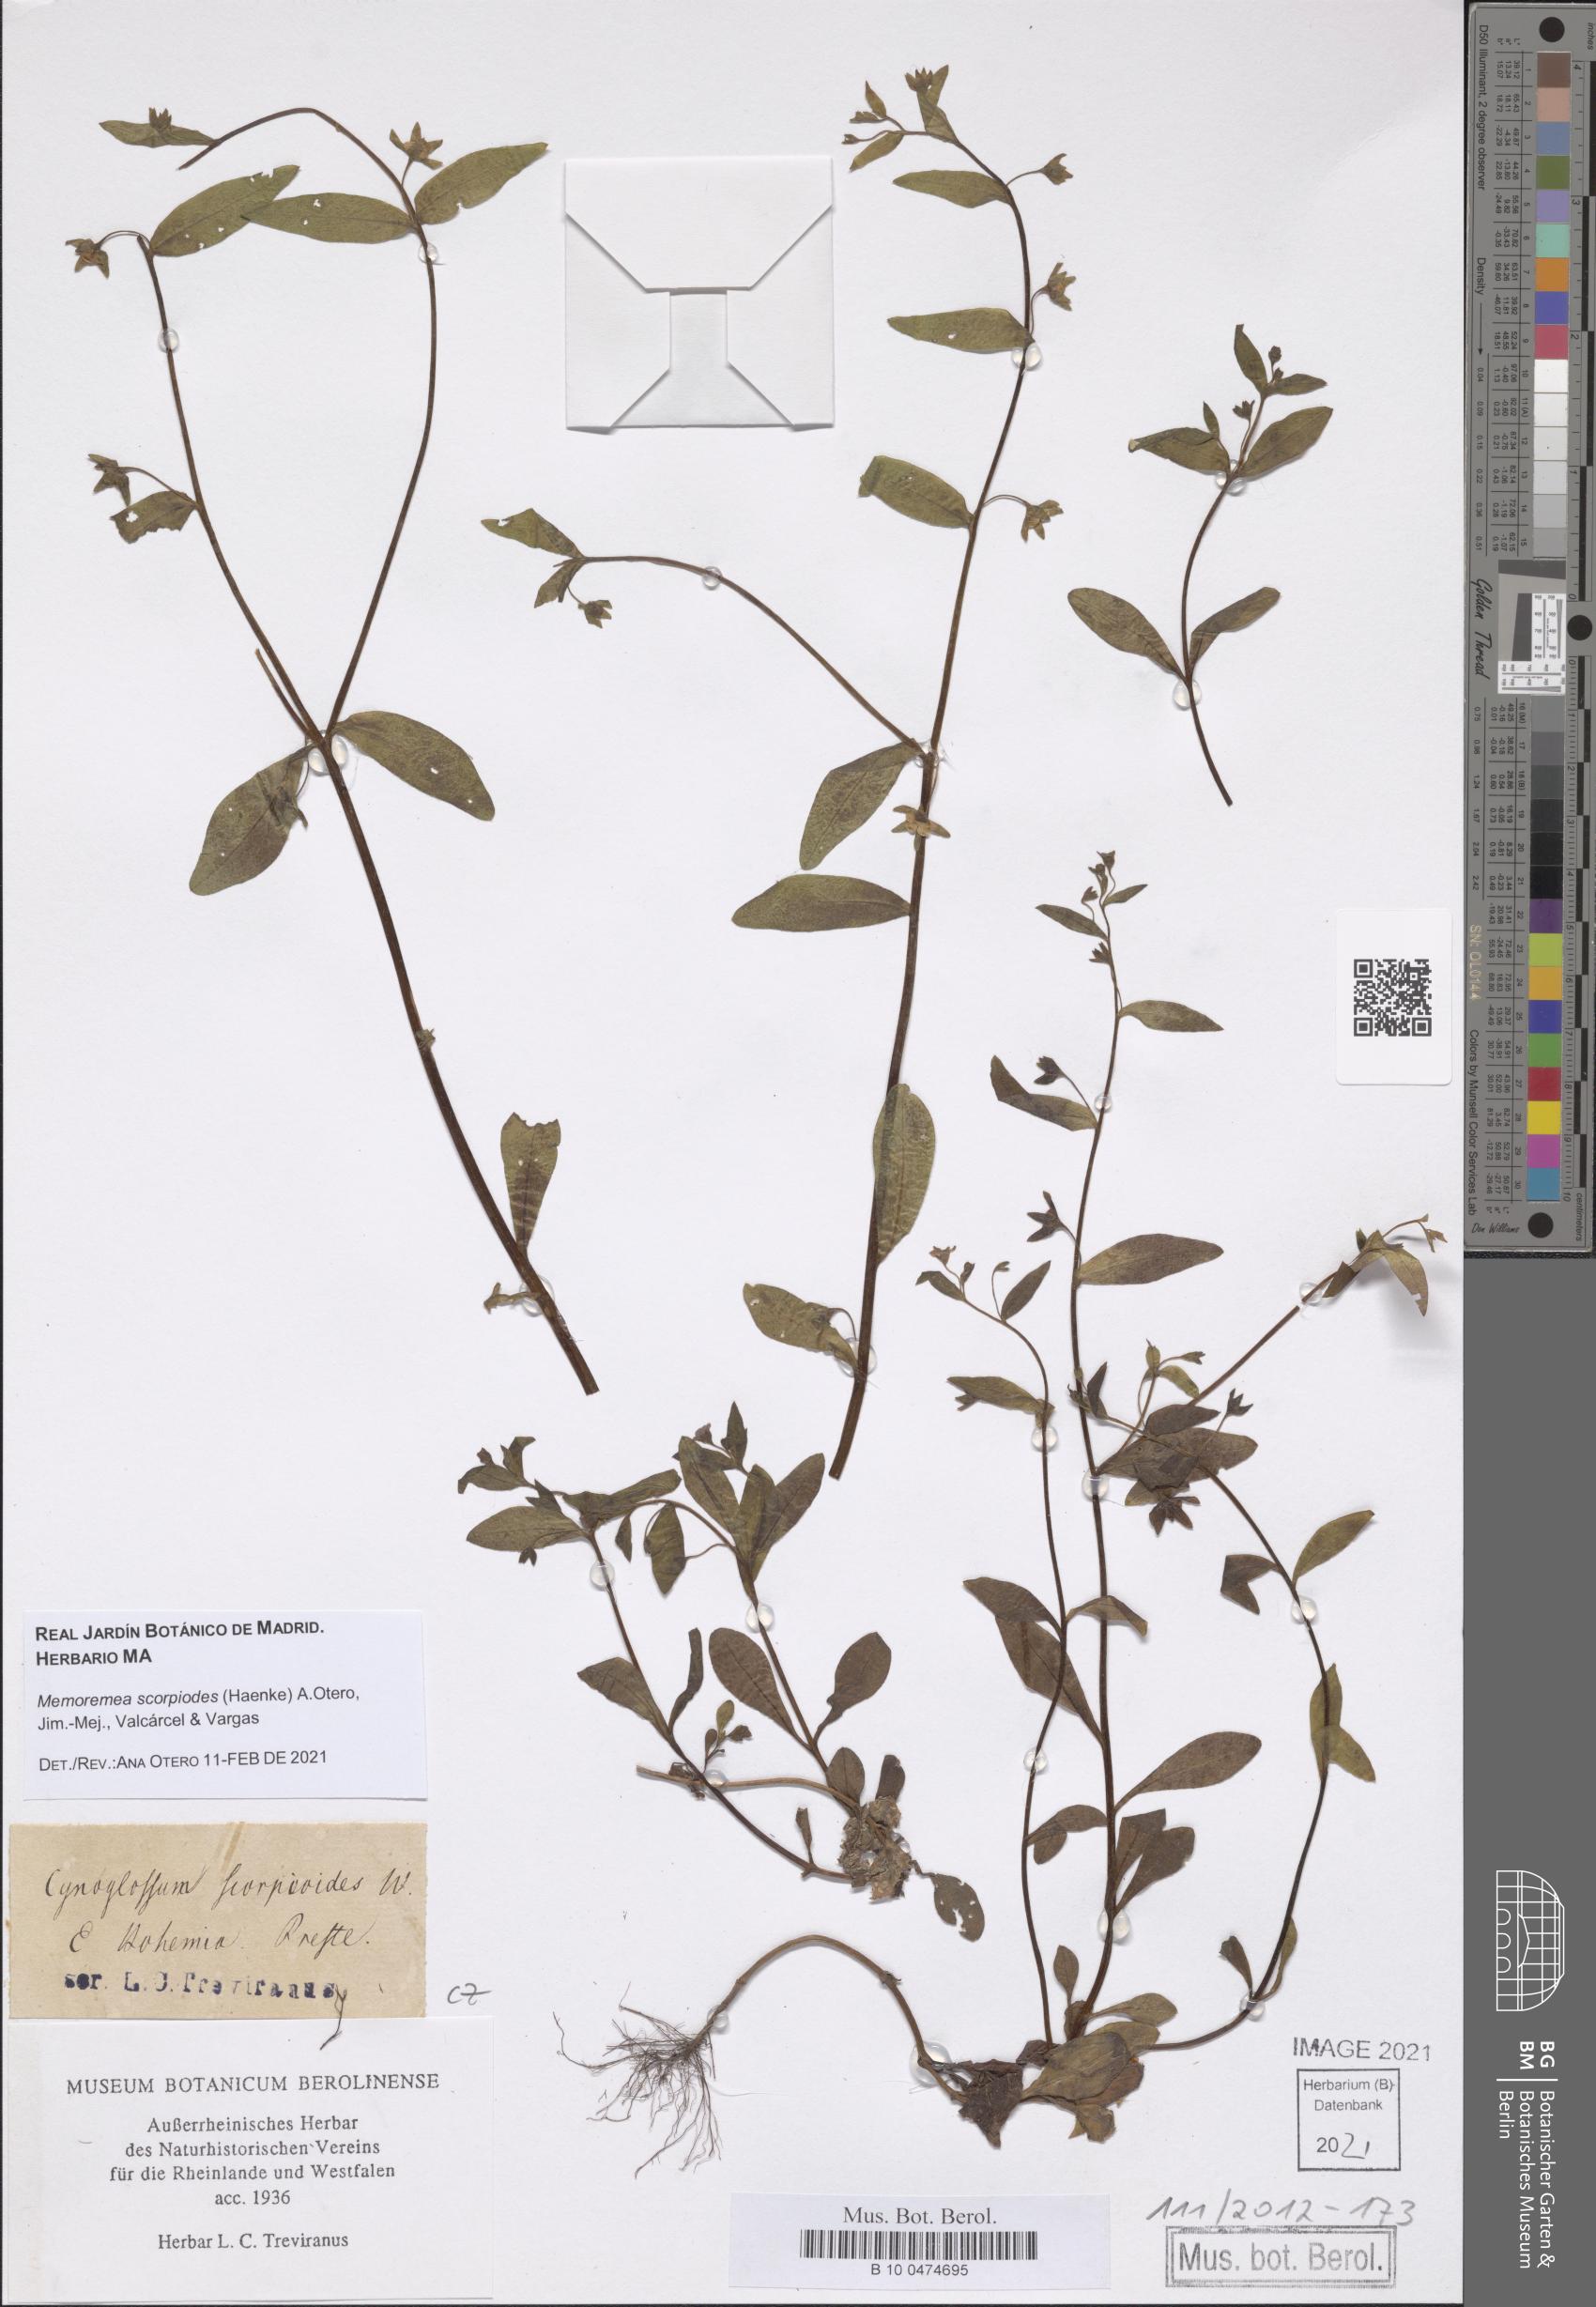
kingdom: Plantae
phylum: Tracheophyta
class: Magnoliopsida
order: Boraginales
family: Boraginaceae
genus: Memoremea
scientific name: Memoremea scorpioides
